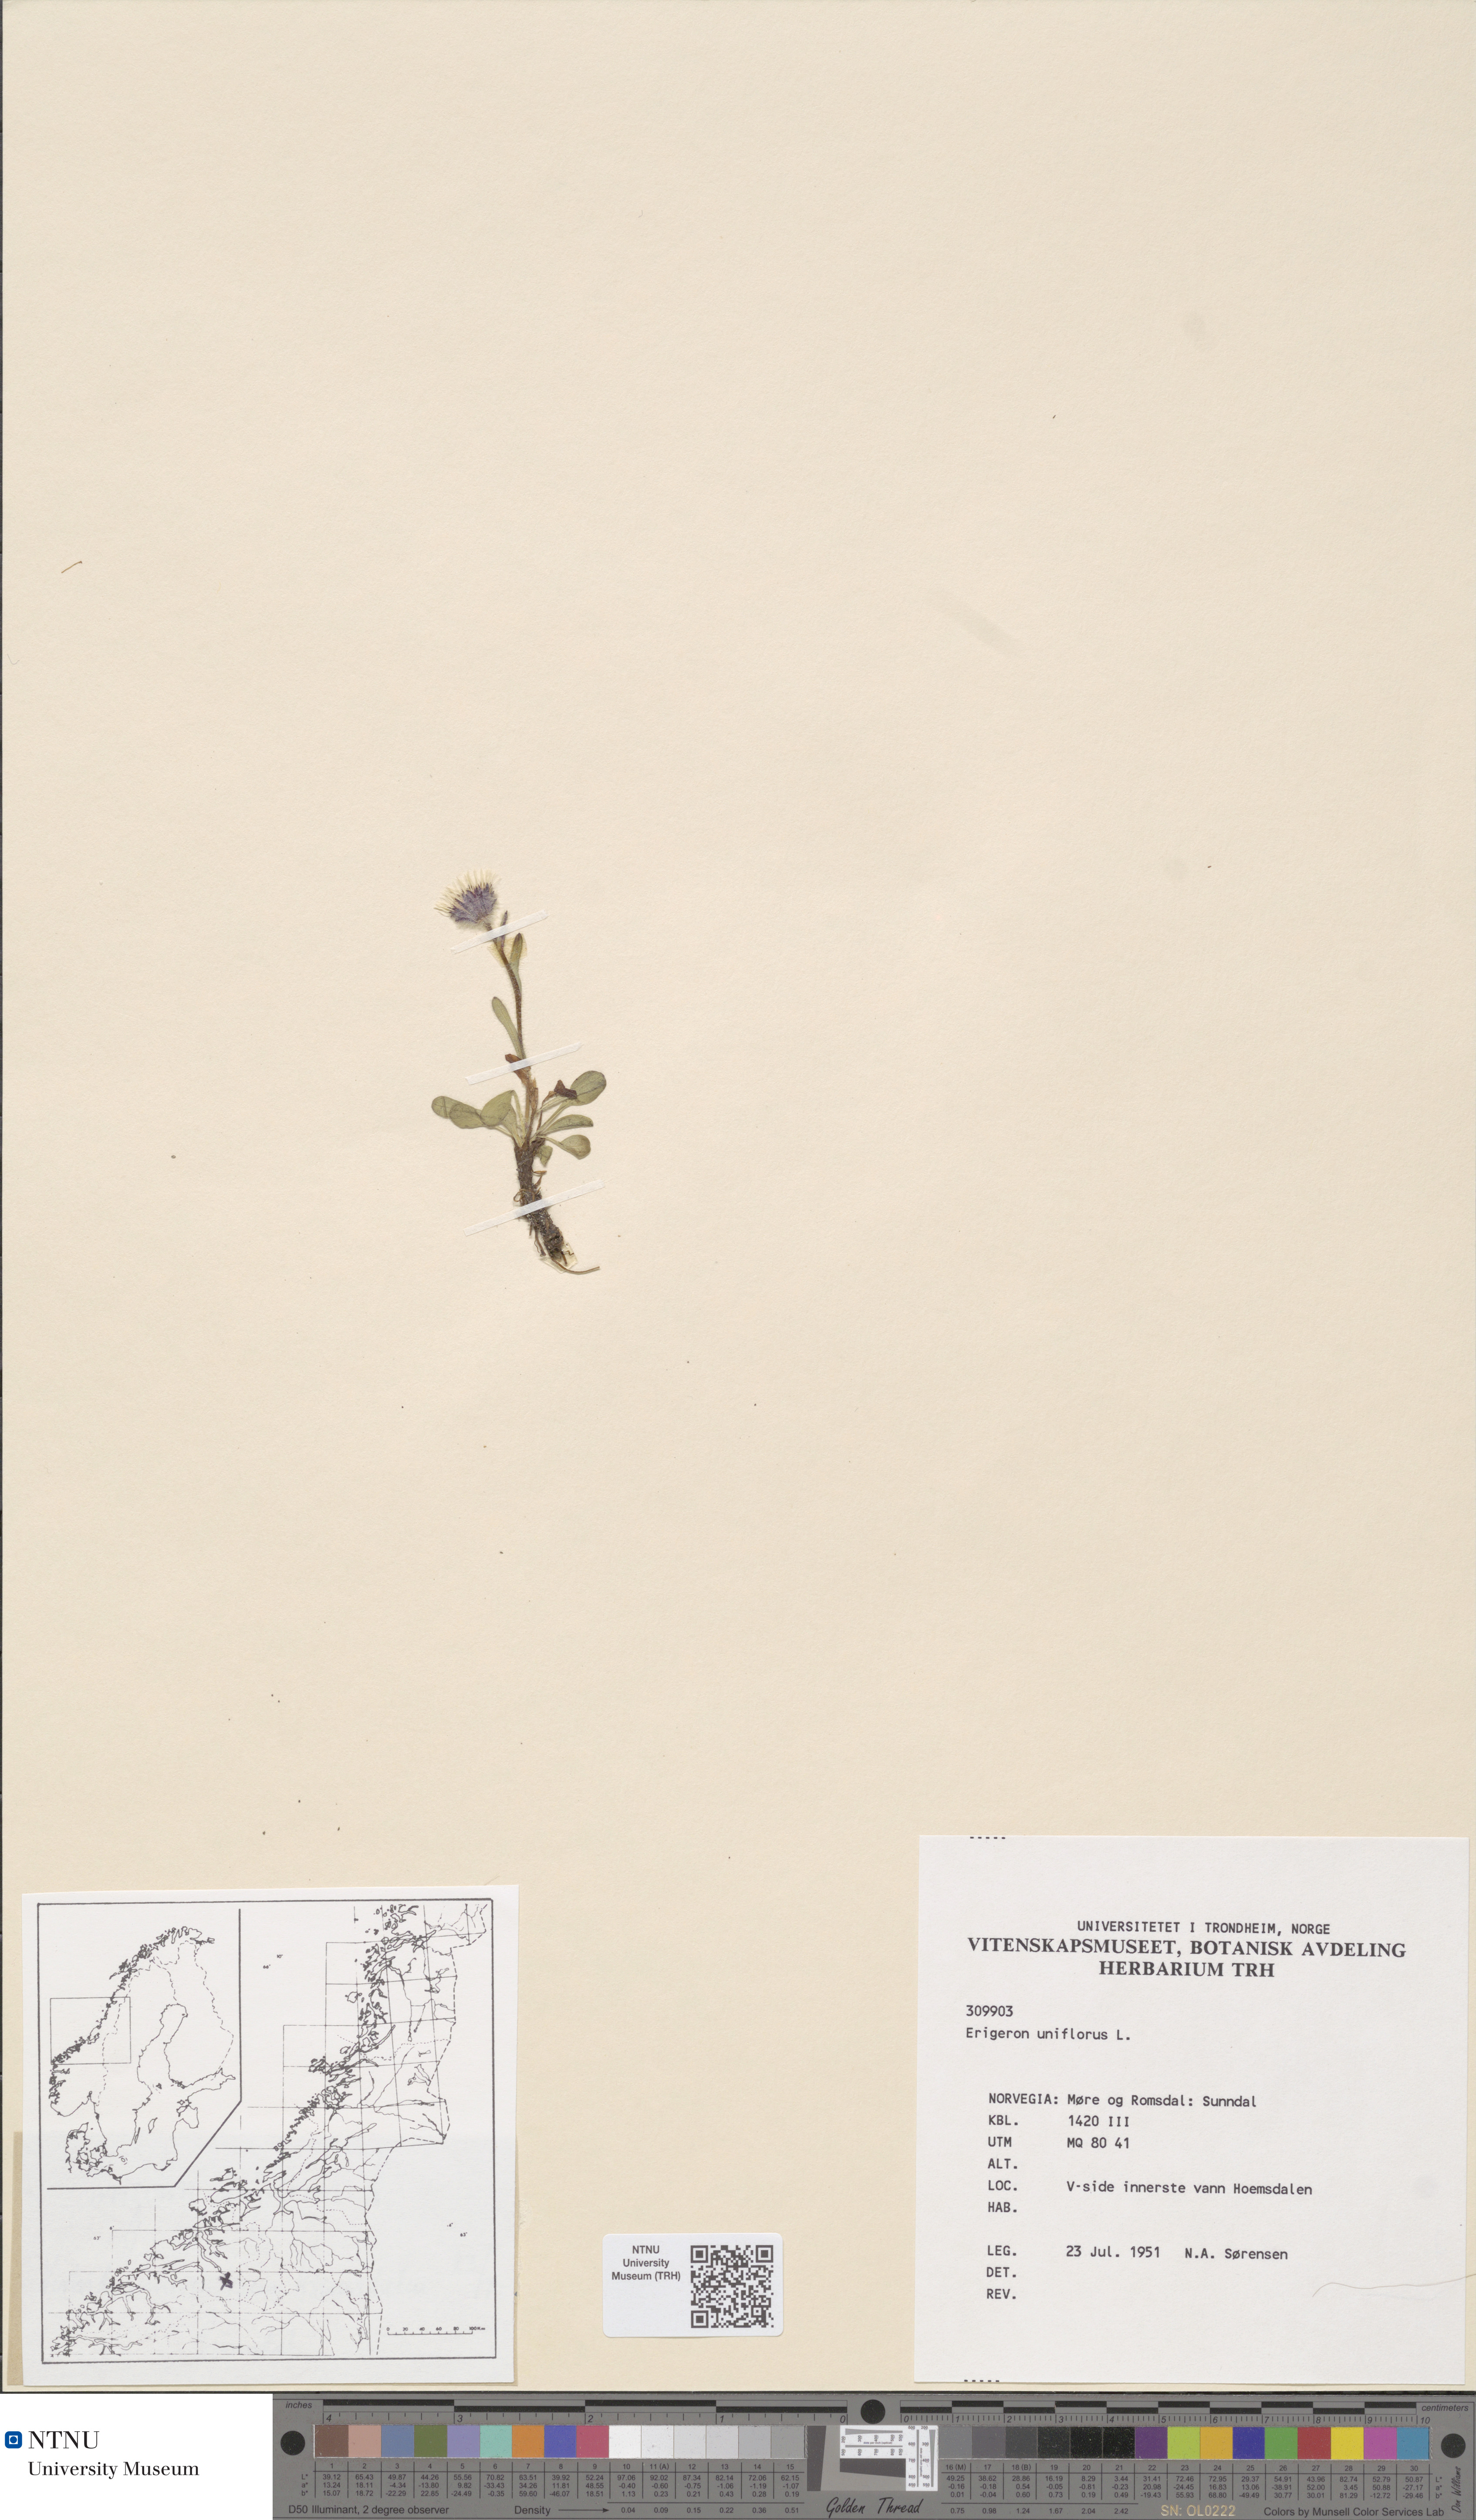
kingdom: Plantae
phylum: Tracheophyta
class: Magnoliopsida
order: Asterales
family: Asteraceae
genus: Erigeron
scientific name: Erigeron uniflorus
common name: Northern daisy
